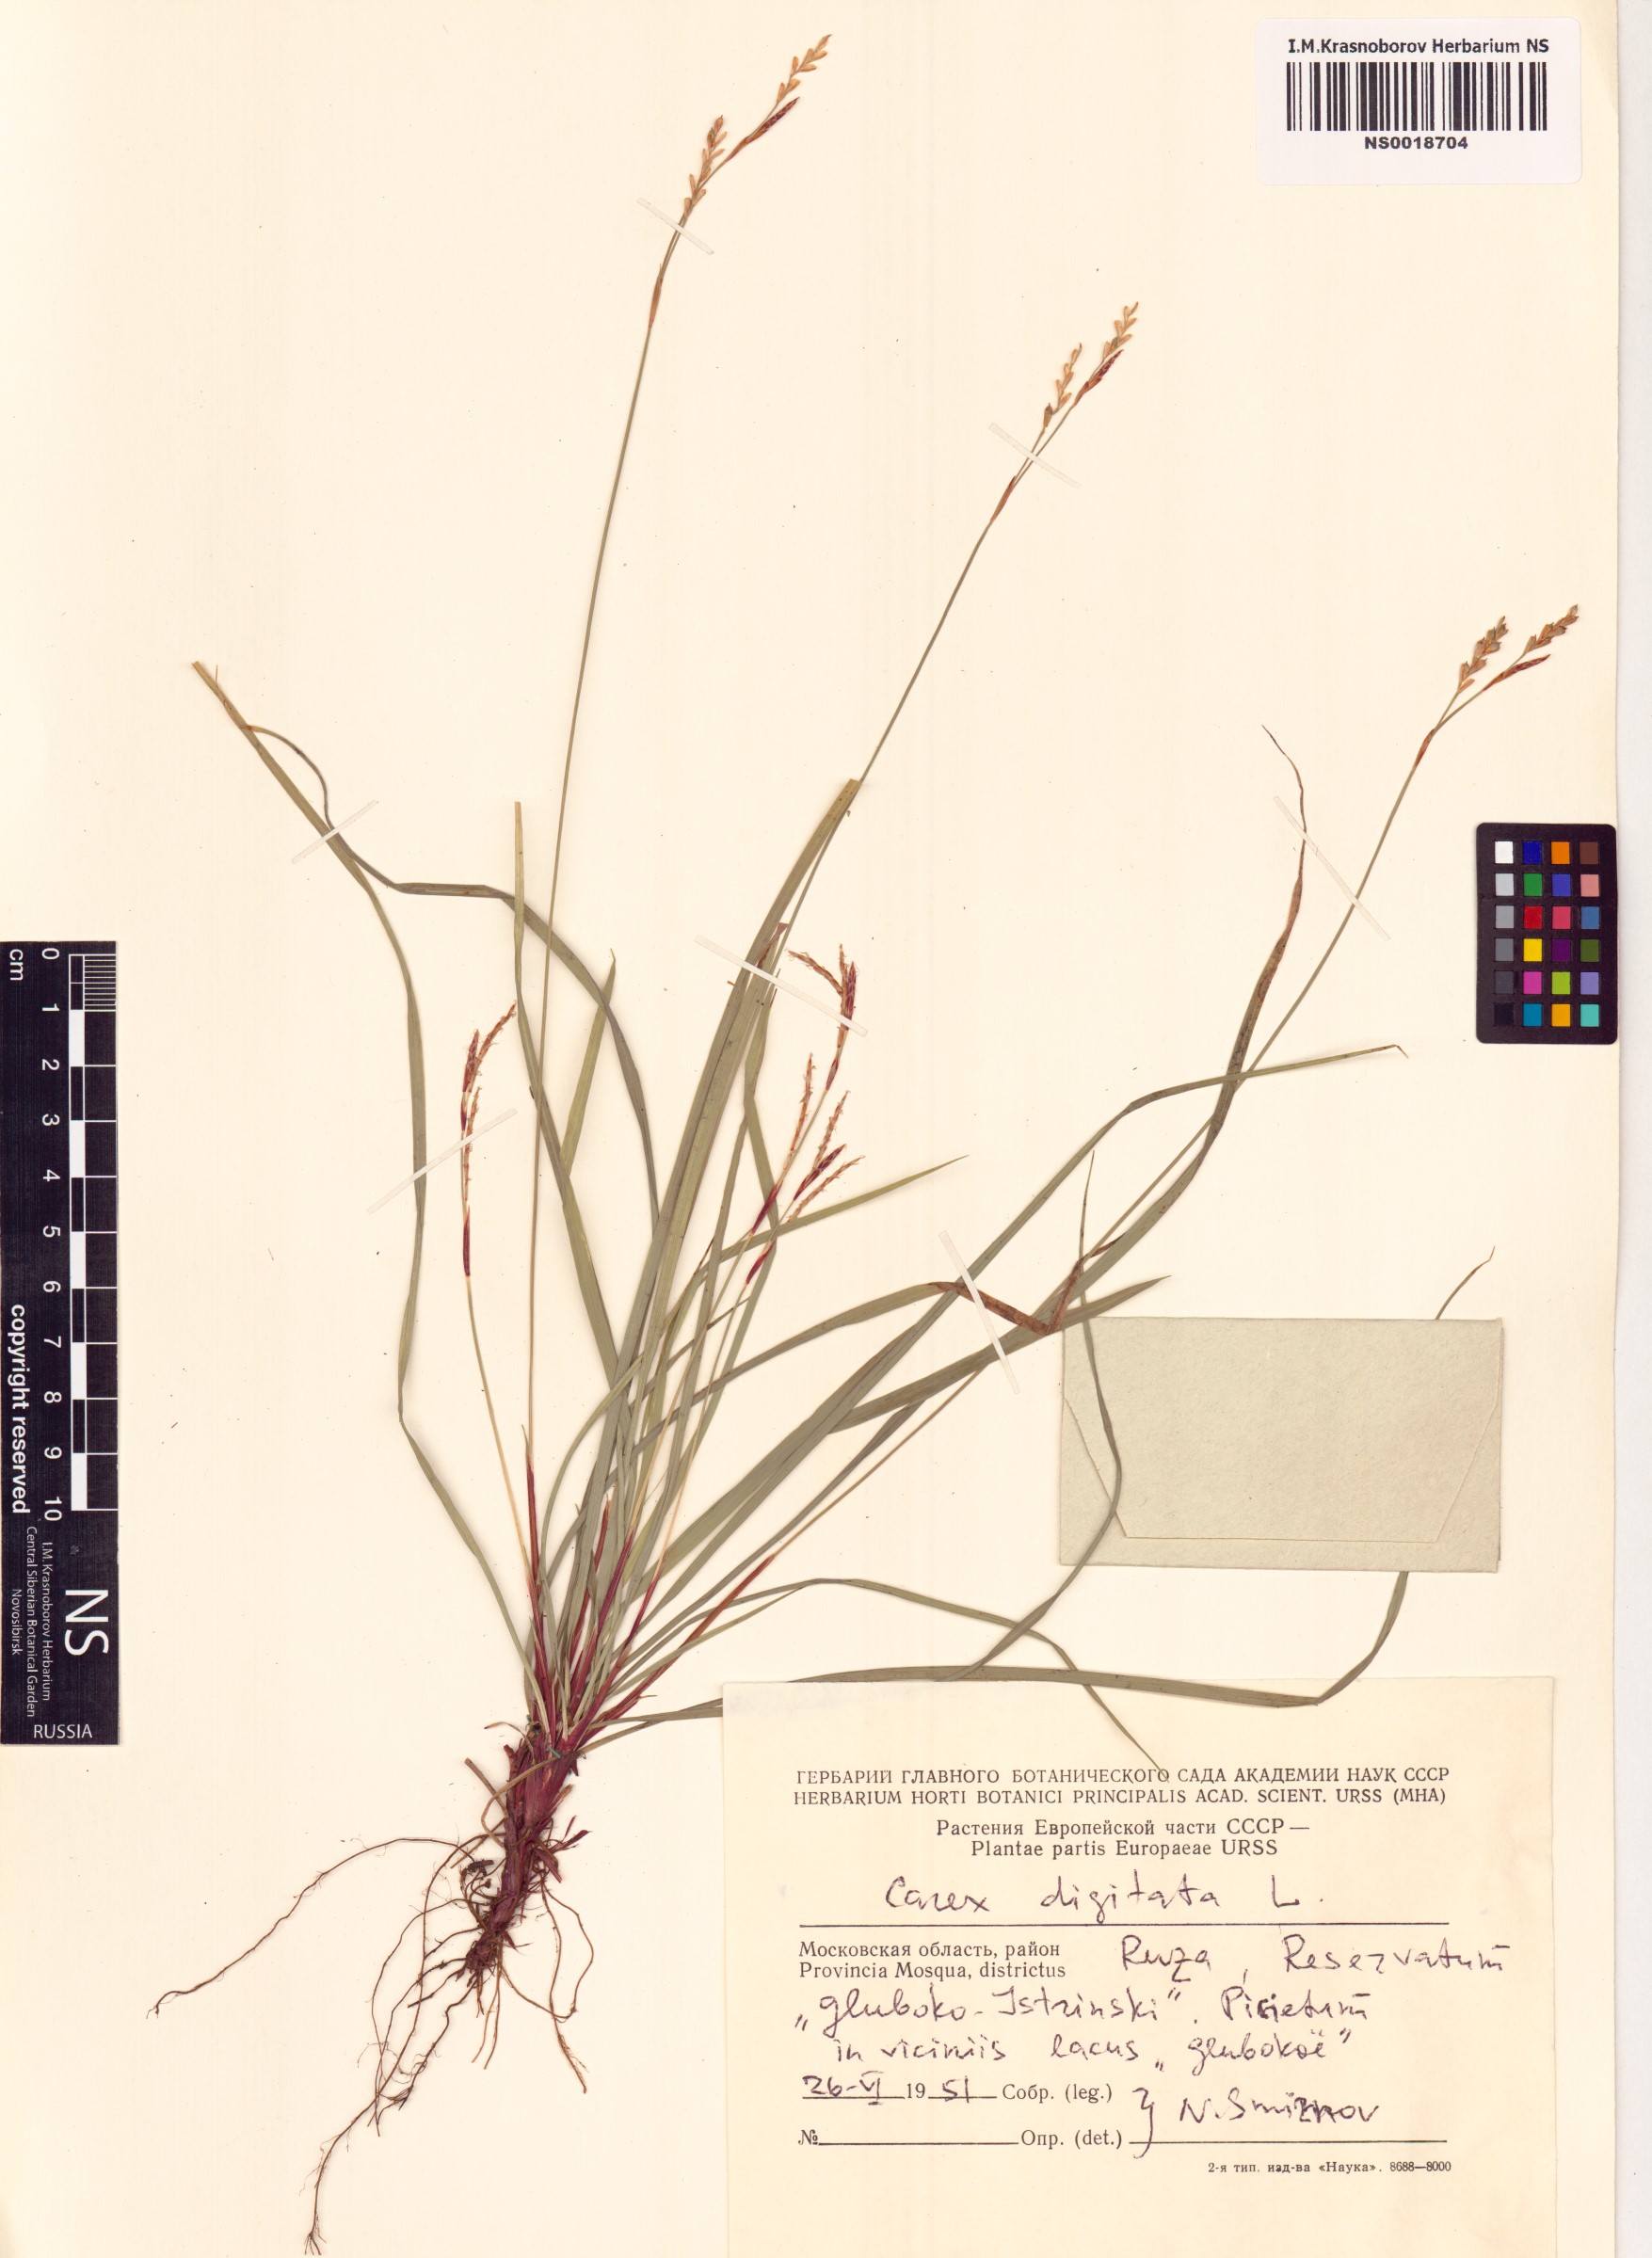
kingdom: Plantae
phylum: Tracheophyta
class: Liliopsida
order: Poales
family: Cyperaceae
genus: Carex
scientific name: Carex digitata
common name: Fingered sedge
